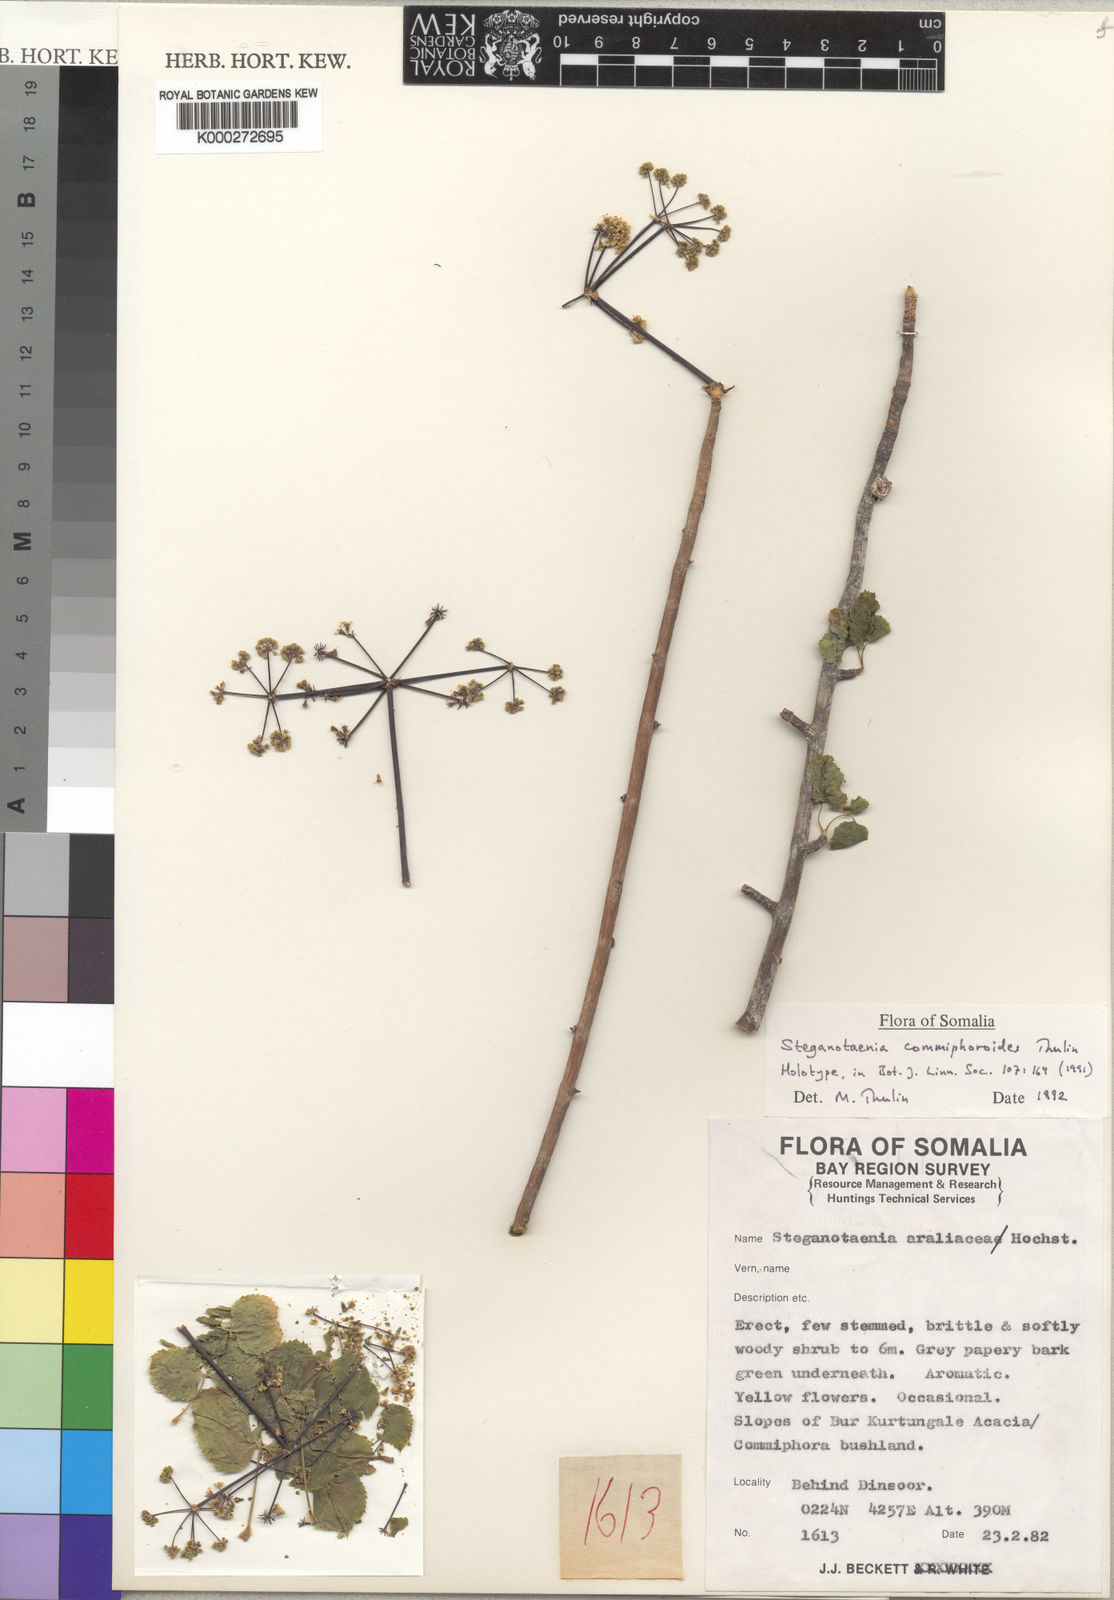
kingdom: Plantae
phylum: Tracheophyta
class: Magnoliopsida
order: Apiales
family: Apiaceae
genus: Steganotaenia
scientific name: Steganotaenia commiphoroides
